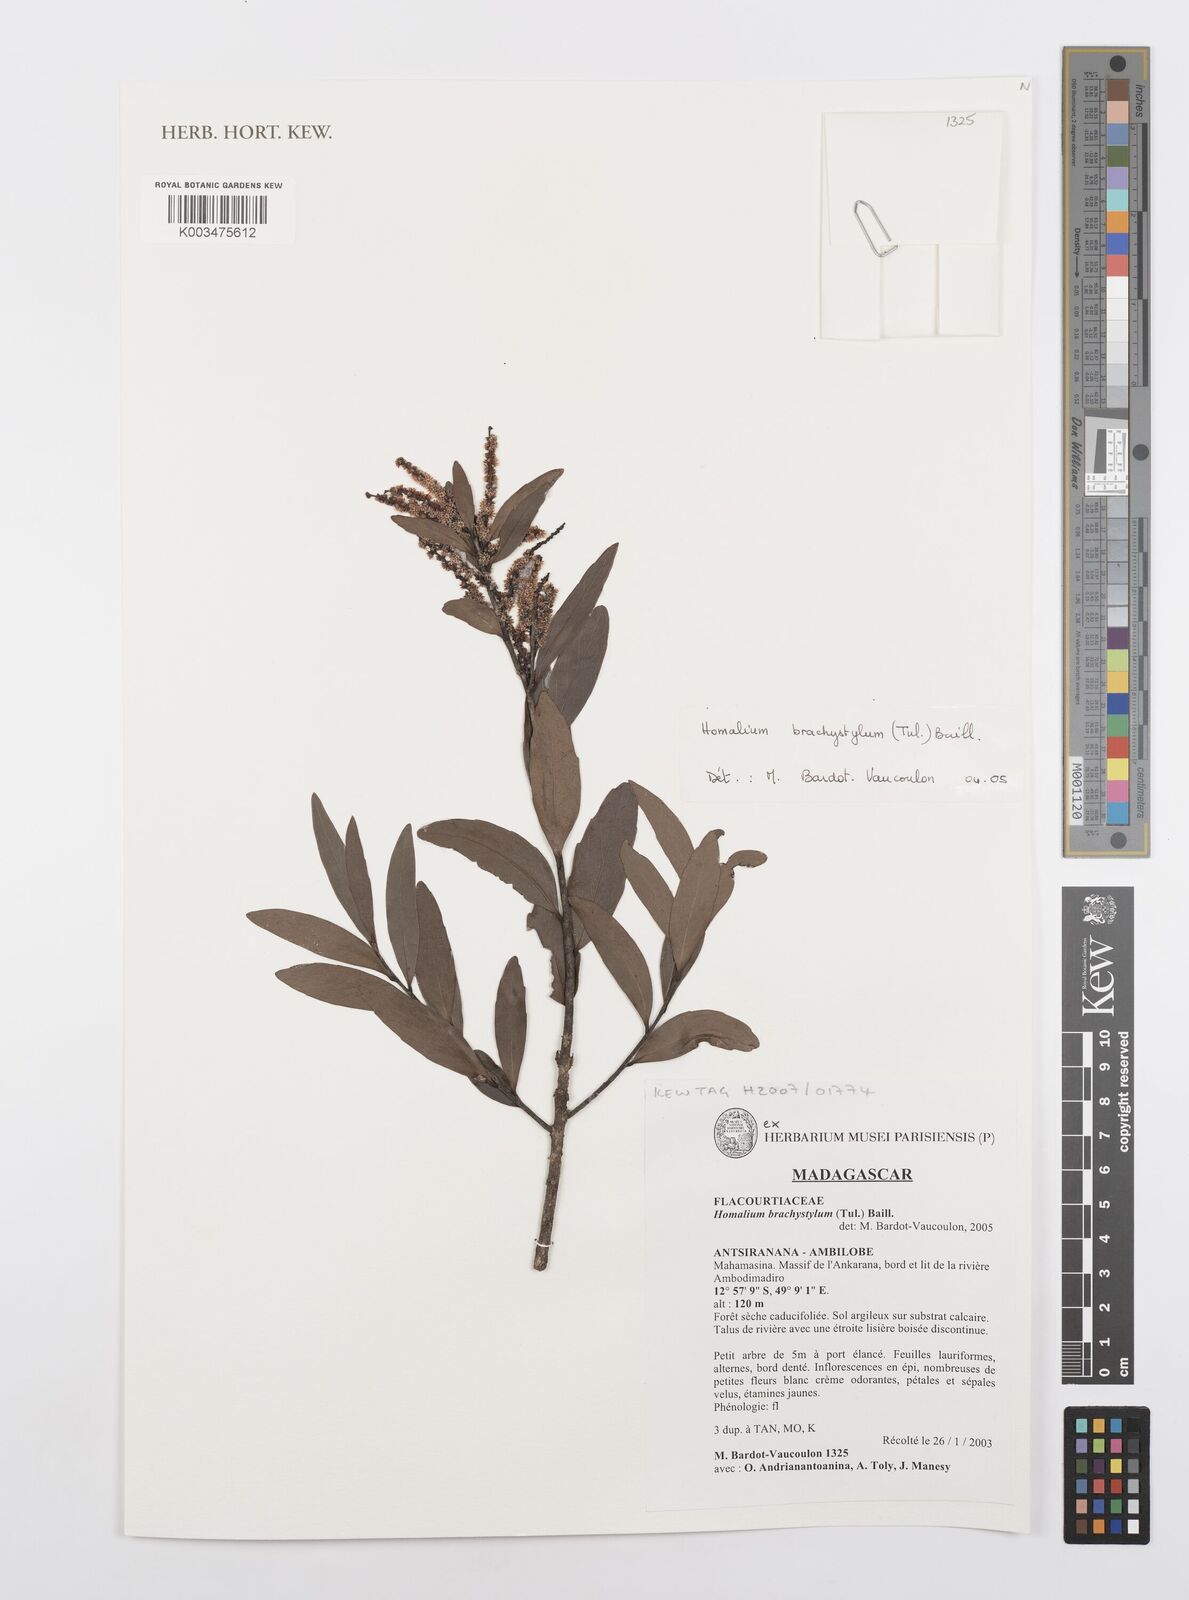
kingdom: Plantae
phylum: Tracheophyta
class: Magnoliopsida
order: Malpighiales
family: Salicaceae
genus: Homalium
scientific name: Homalium brachystylis
